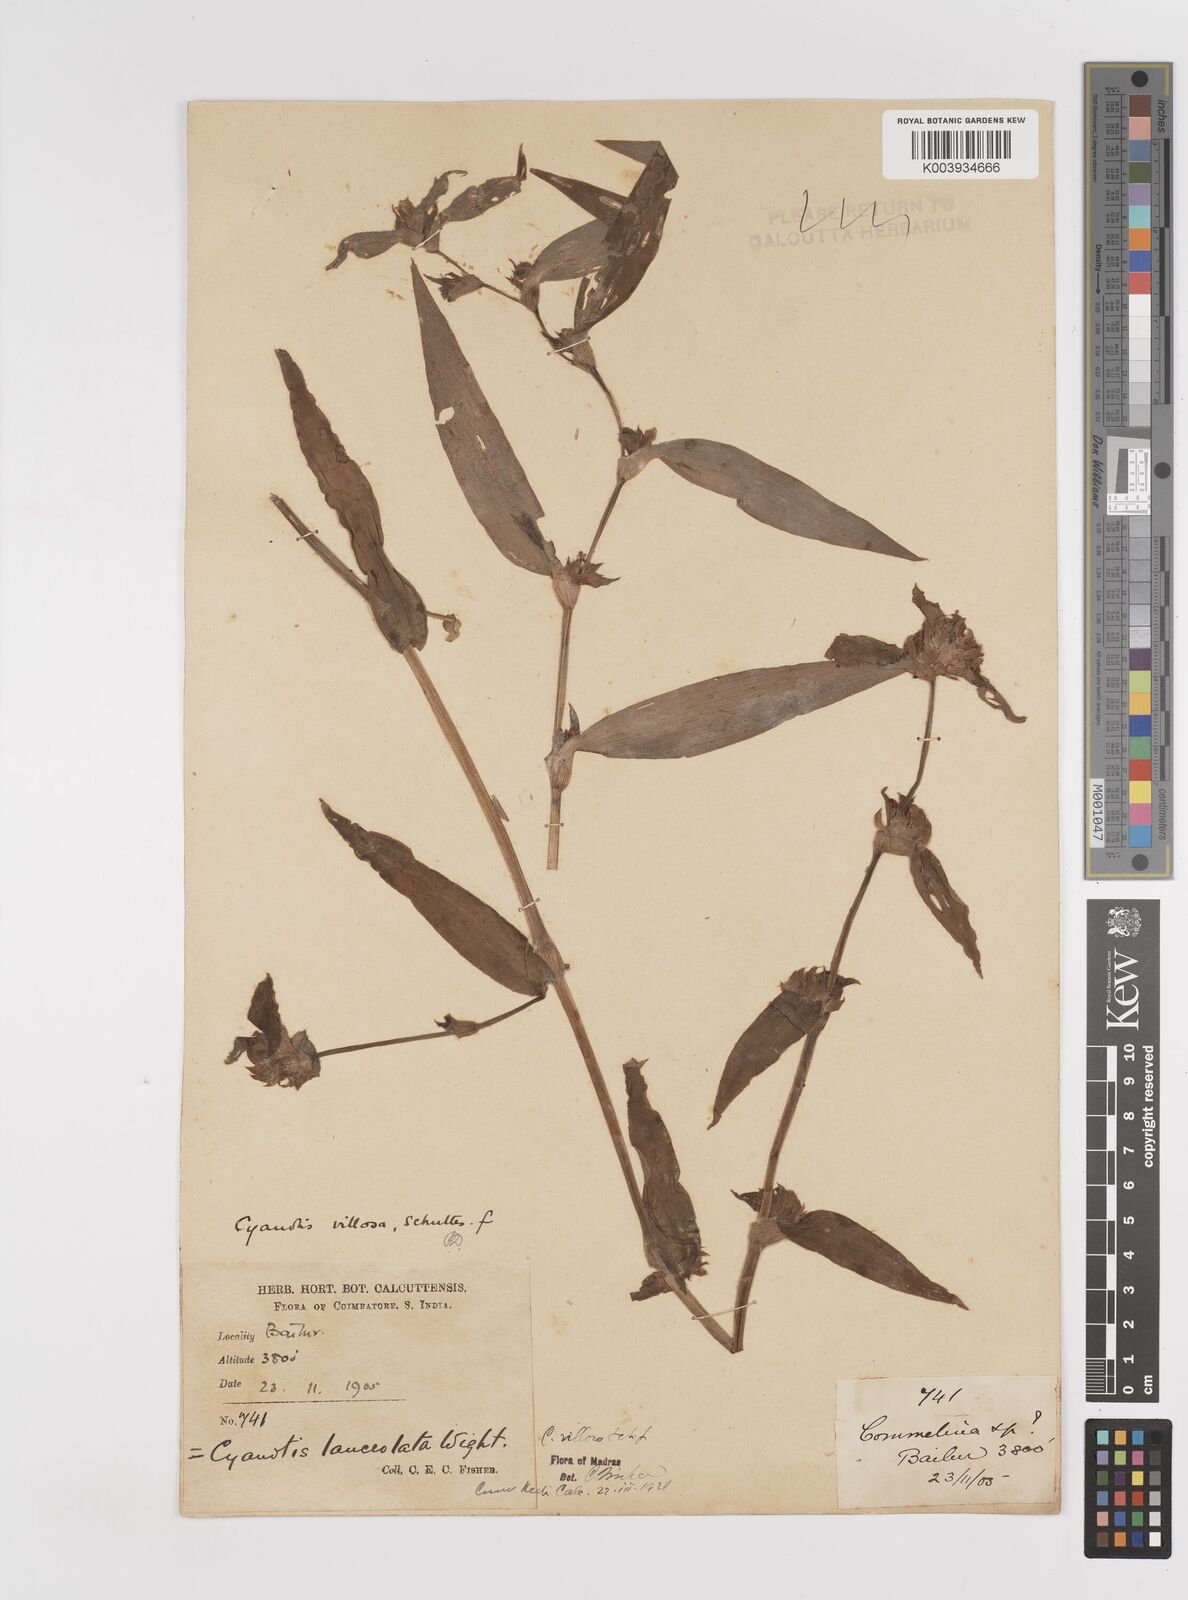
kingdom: Plantae
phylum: Tracheophyta
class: Liliopsida
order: Commelinales
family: Commelinaceae
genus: Cyanotis
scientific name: Cyanotis villosa
